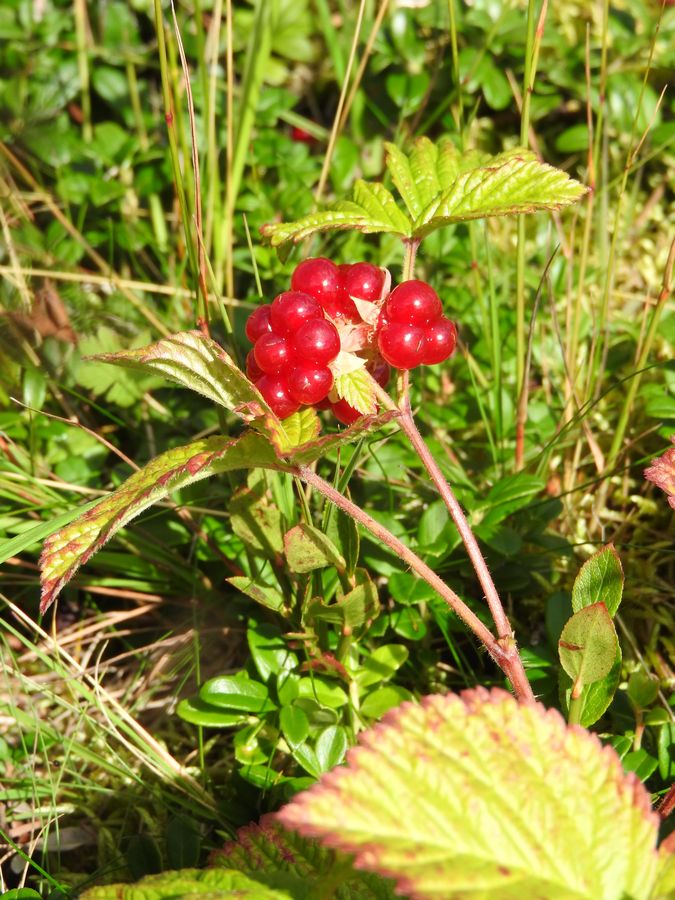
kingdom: Plantae
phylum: Tracheophyta
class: Magnoliopsida
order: Rosales
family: Rosaceae
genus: Rubus
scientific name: Rubus saxatilis
